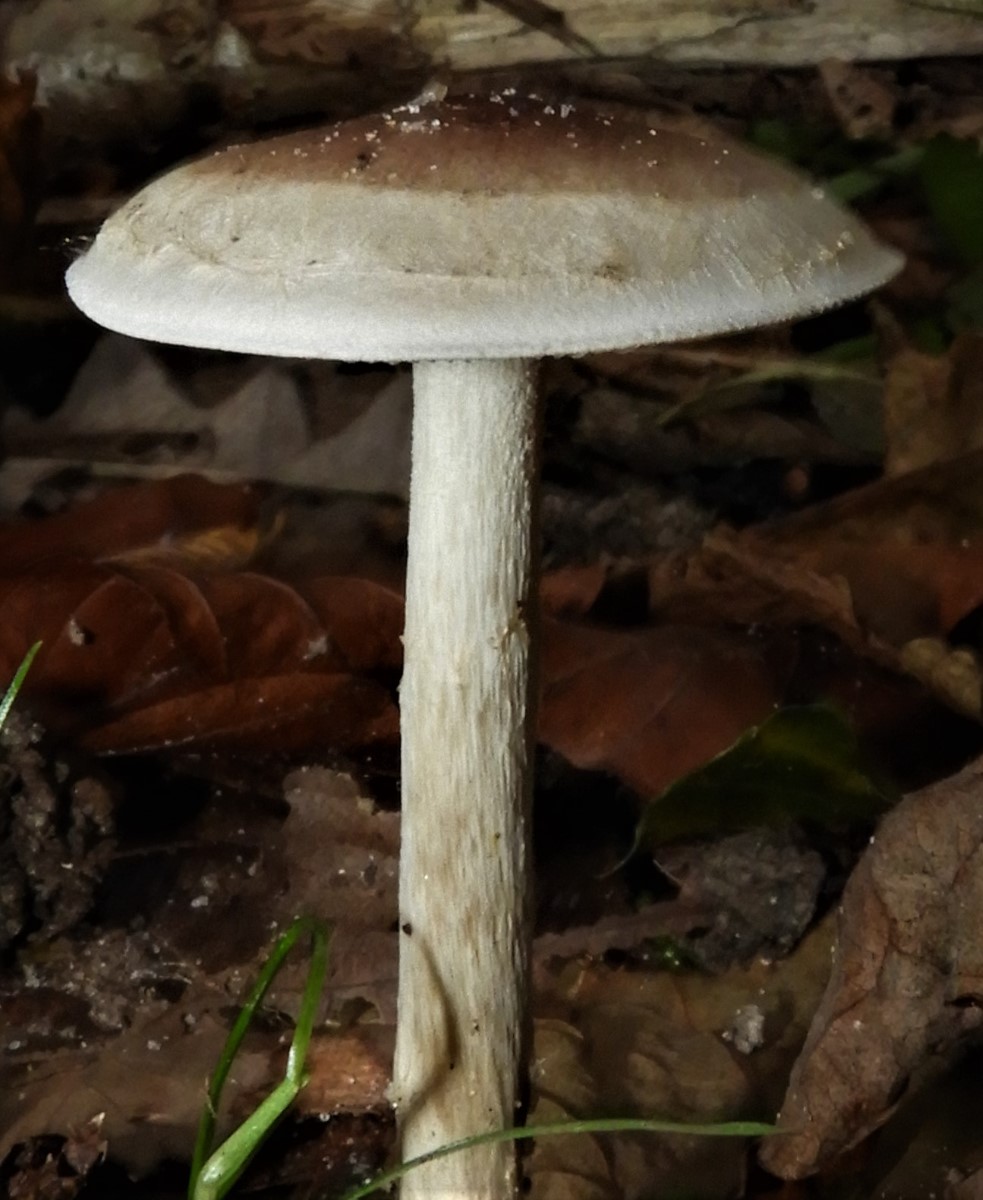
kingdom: Fungi
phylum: Basidiomycota
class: Agaricomycetes
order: Agaricales
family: Hymenogastraceae
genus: Hebeloma
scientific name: Hebeloma mesophaeum
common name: lerbrun tåreblad
